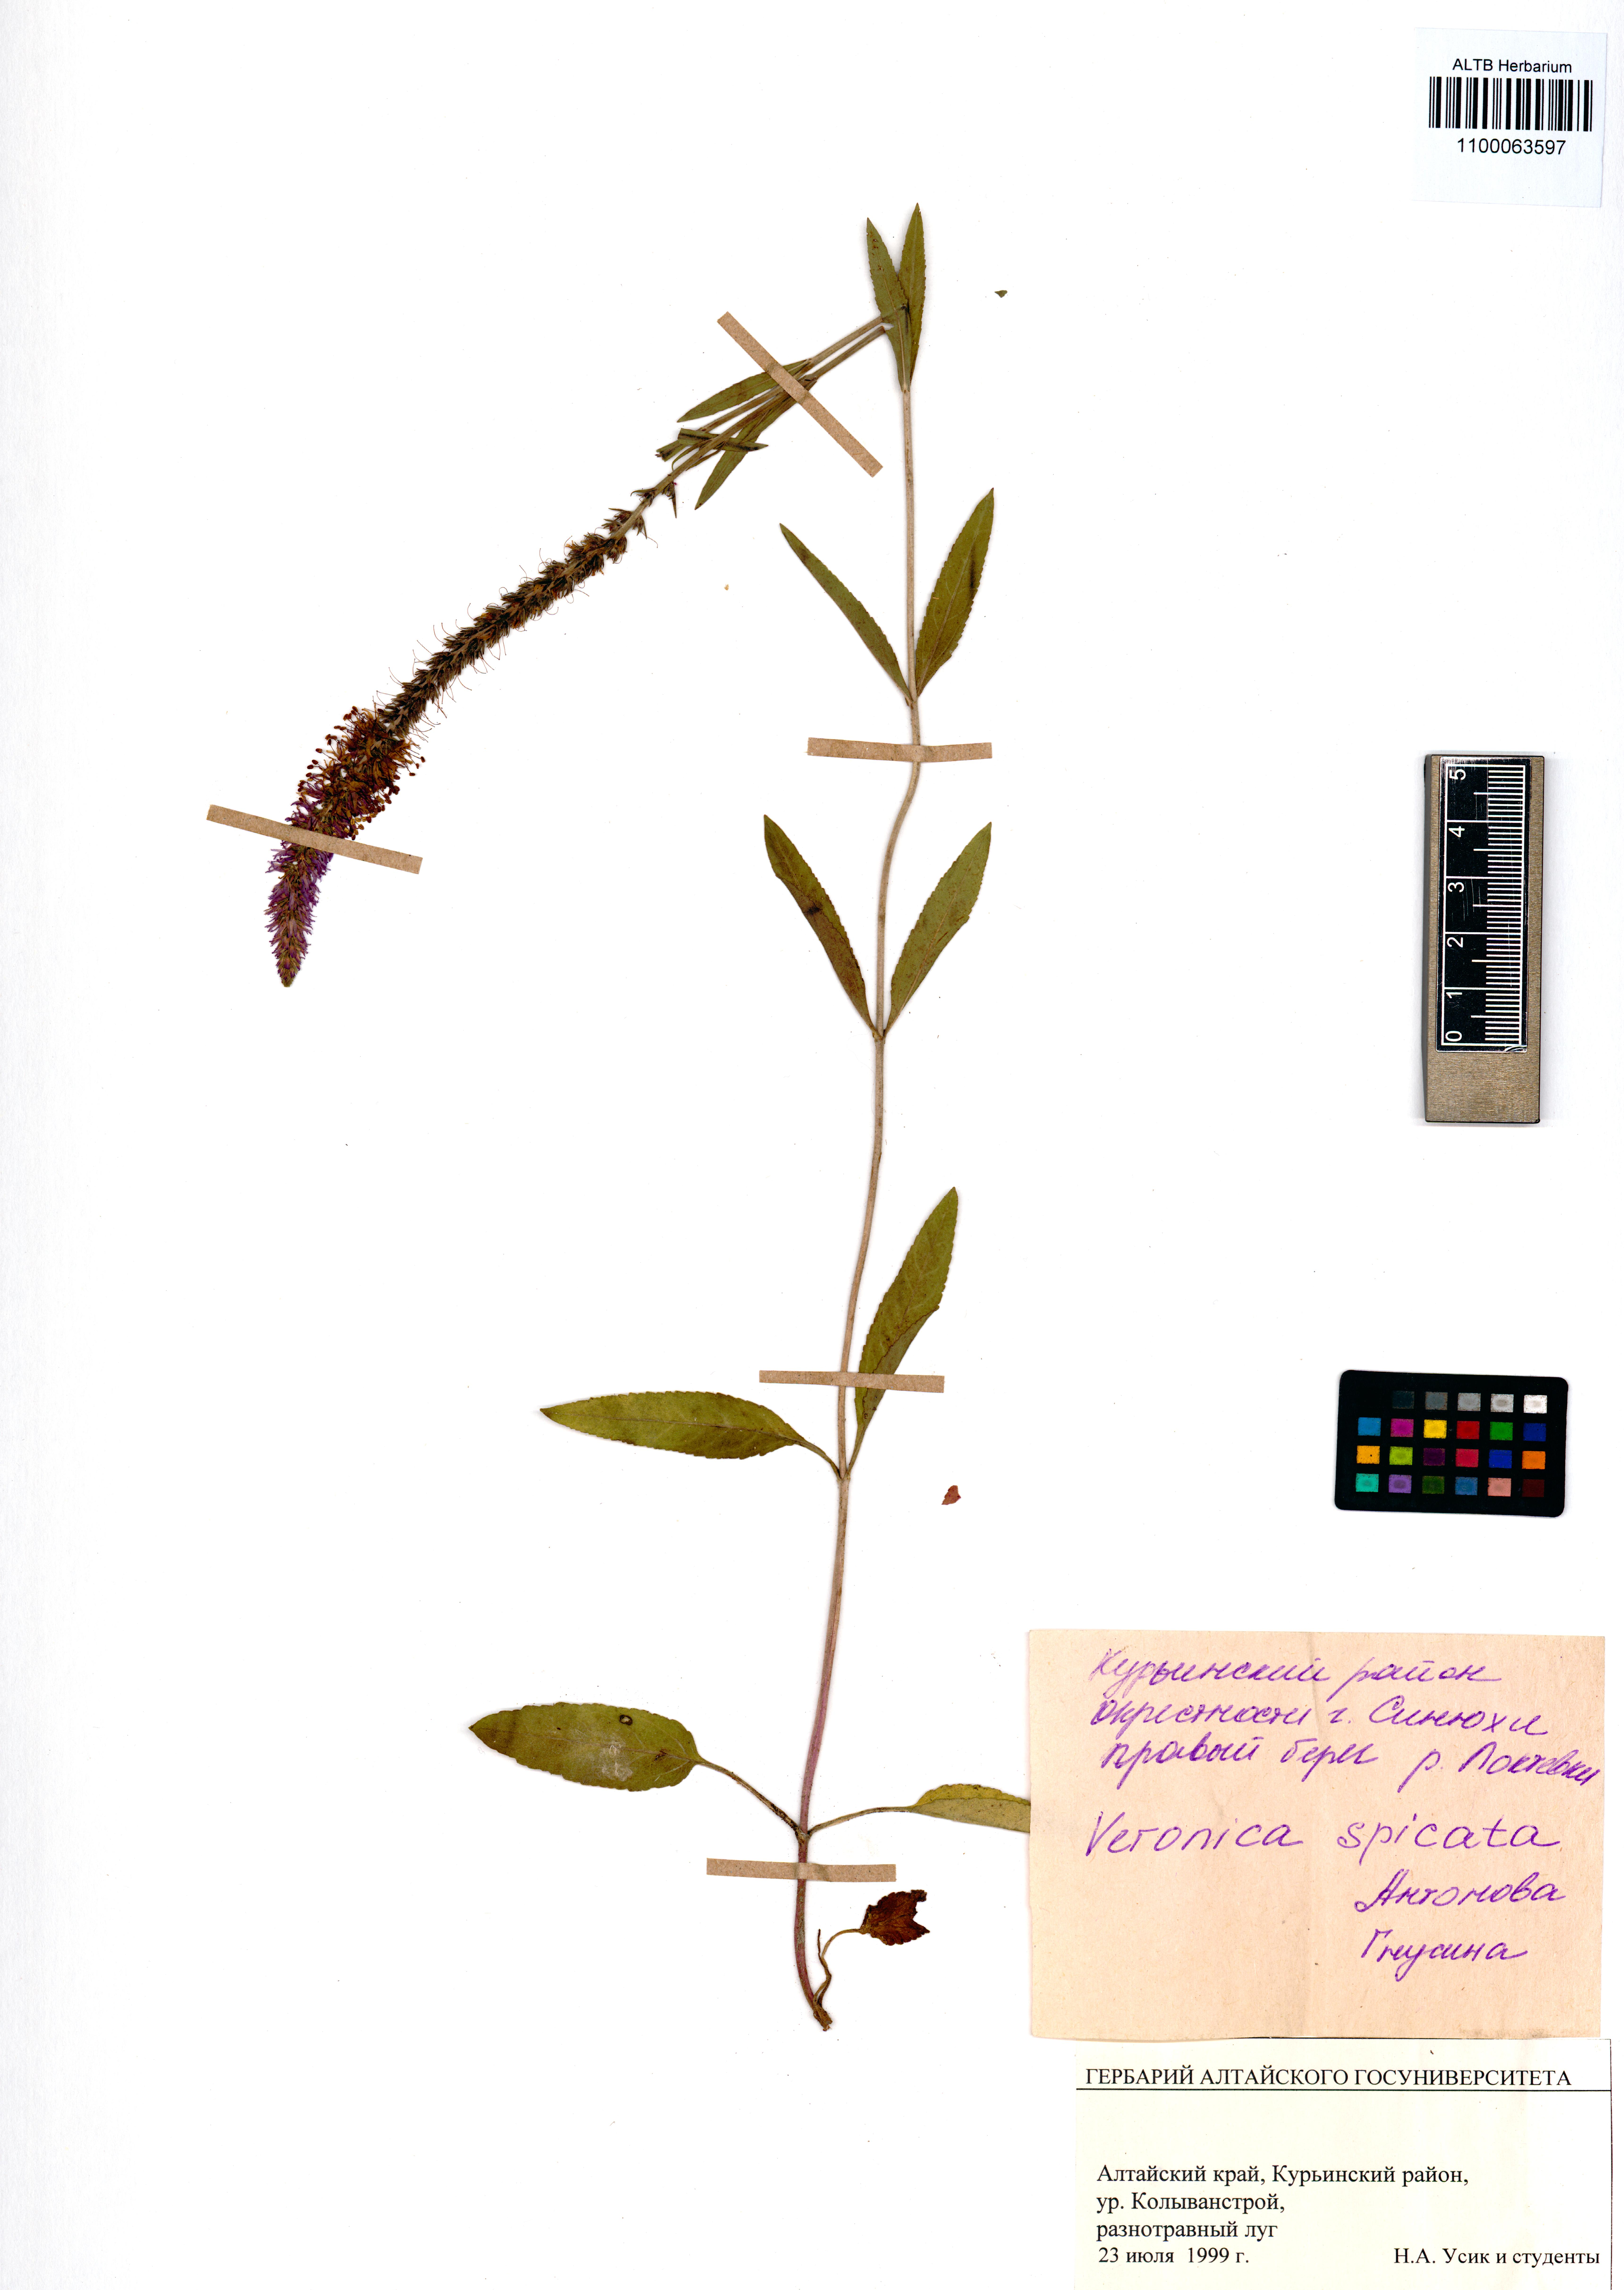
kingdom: Plantae
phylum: Tracheophyta
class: Magnoliopsida
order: Lamiales
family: Plantaginaceae
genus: Veronica
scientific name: Veronica spicata
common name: Spiked speedwell
